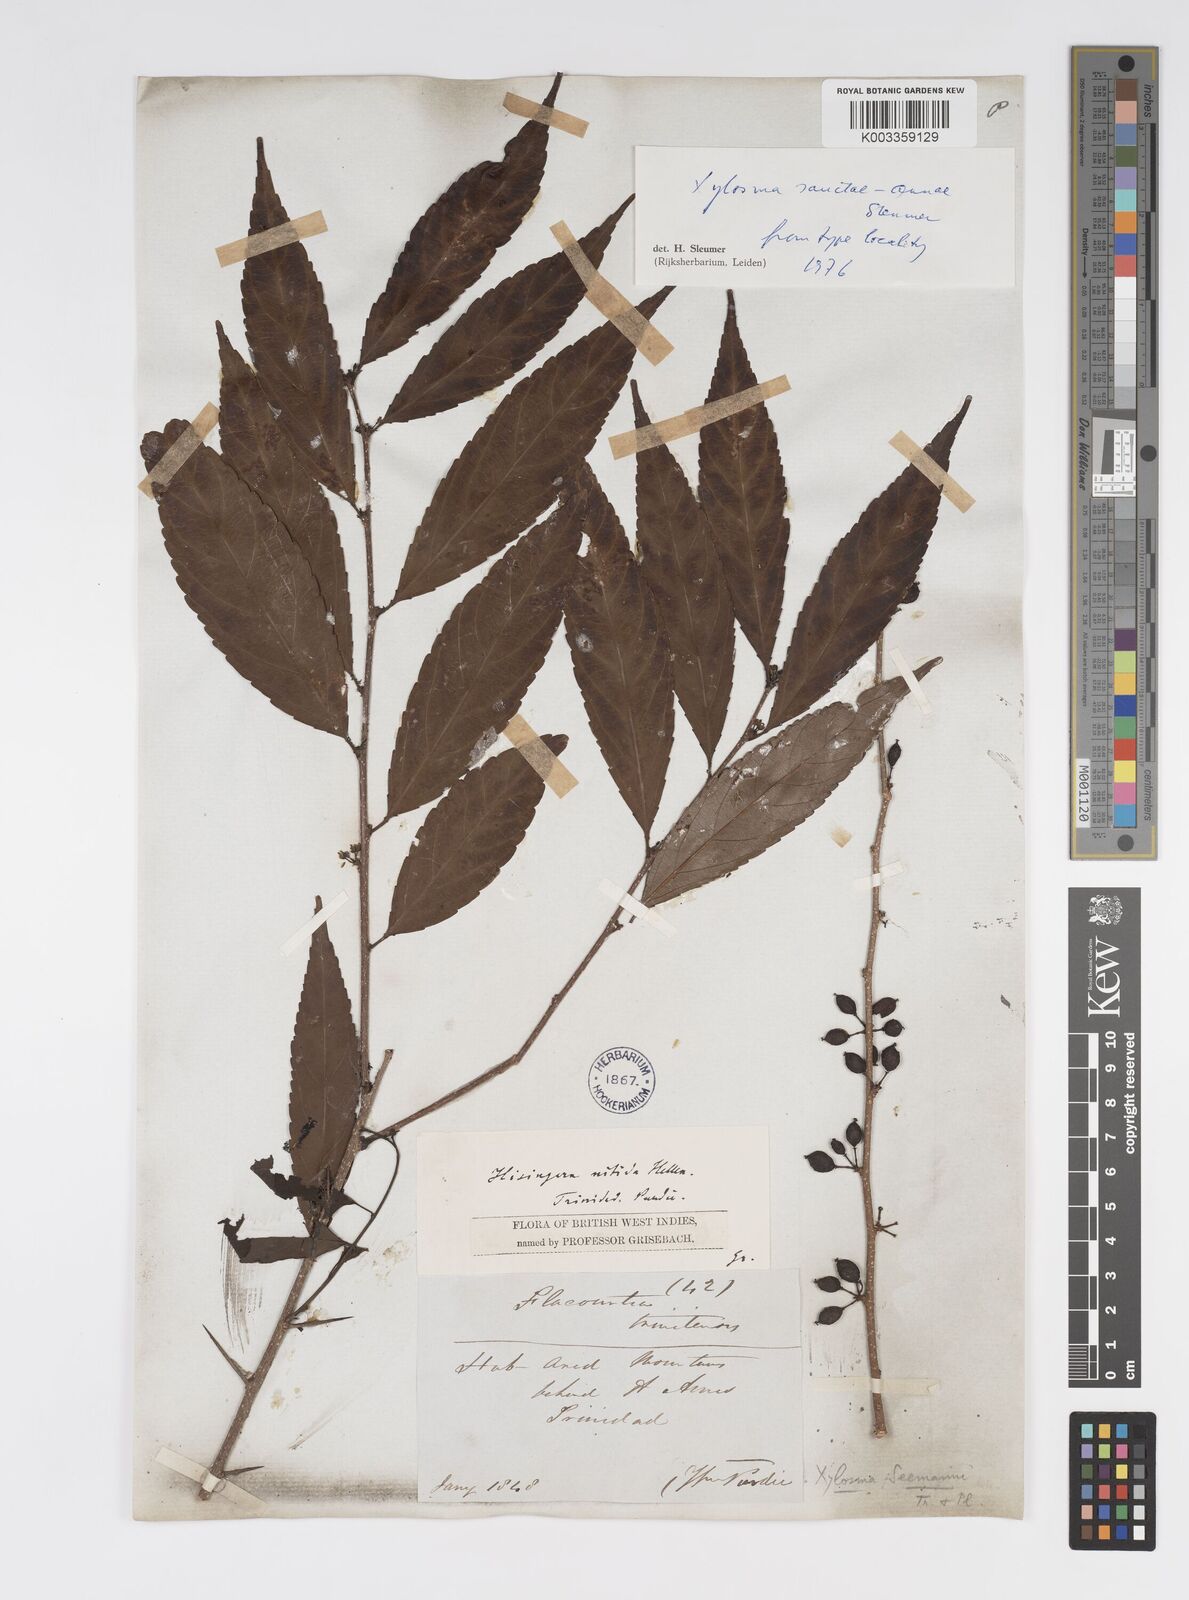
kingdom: Plantae
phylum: Tracheophyta
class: Magnoliopsida
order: Malpighiales
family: Salicaceae
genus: Xylosma
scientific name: Xylosma sanctae-annae
